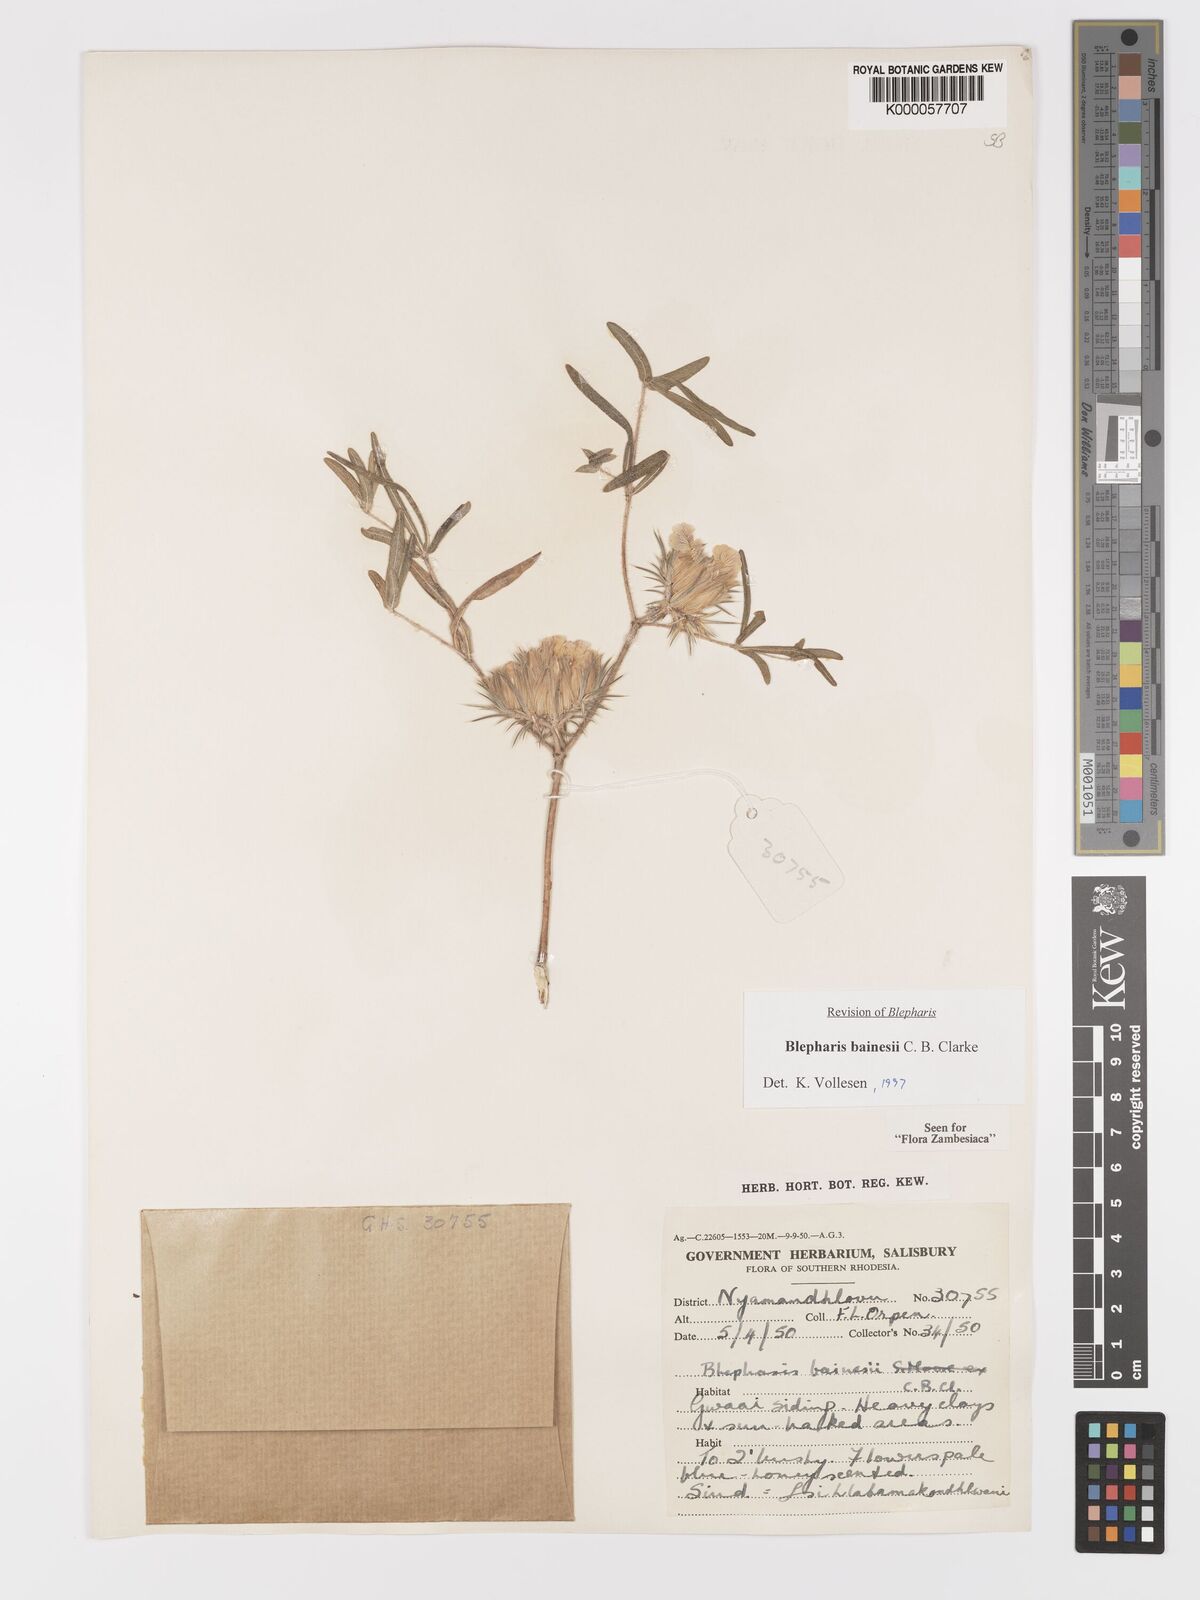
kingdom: Plantae
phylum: Tracheophyta
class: Magnoliopsida
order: Lamiales
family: Acanthaceae
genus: Blepharis
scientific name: Blepharis bainesii
